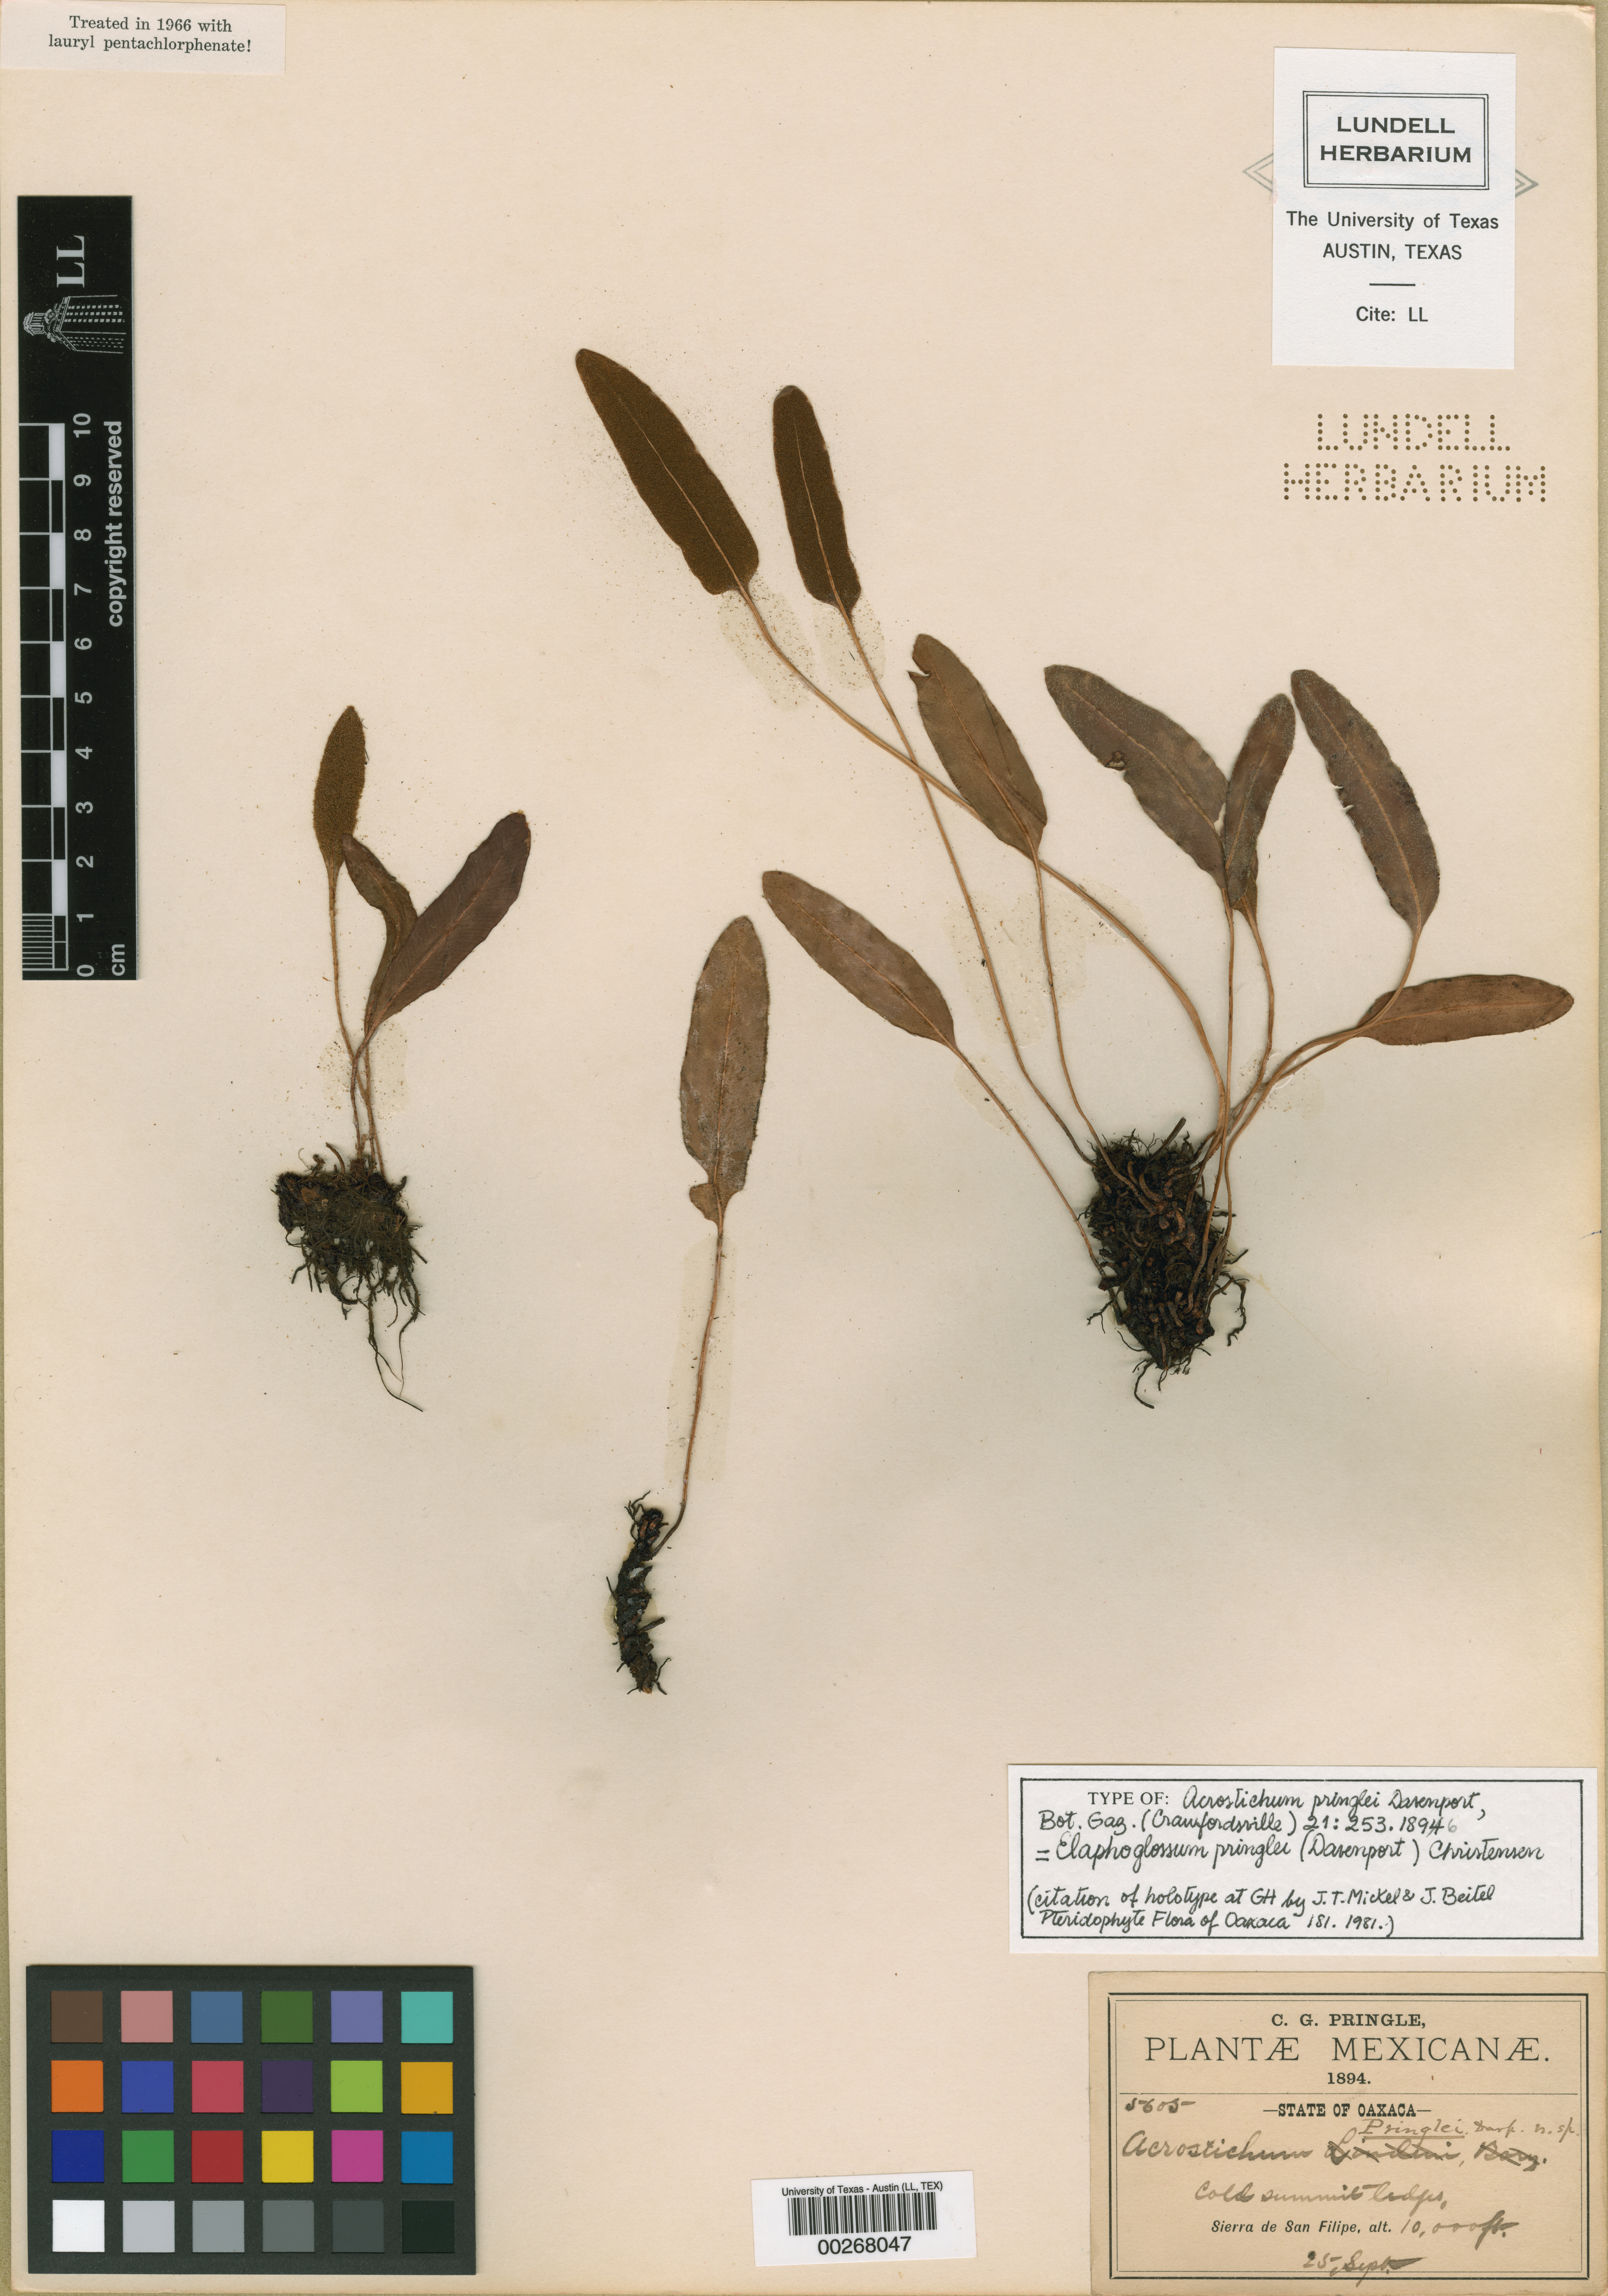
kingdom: Plantae
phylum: Tracheophyta
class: Polypodiopsida
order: Polypodiales
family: Dryopteridaceae
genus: Elaphoglossum
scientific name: Elaphoglossum pringlei
